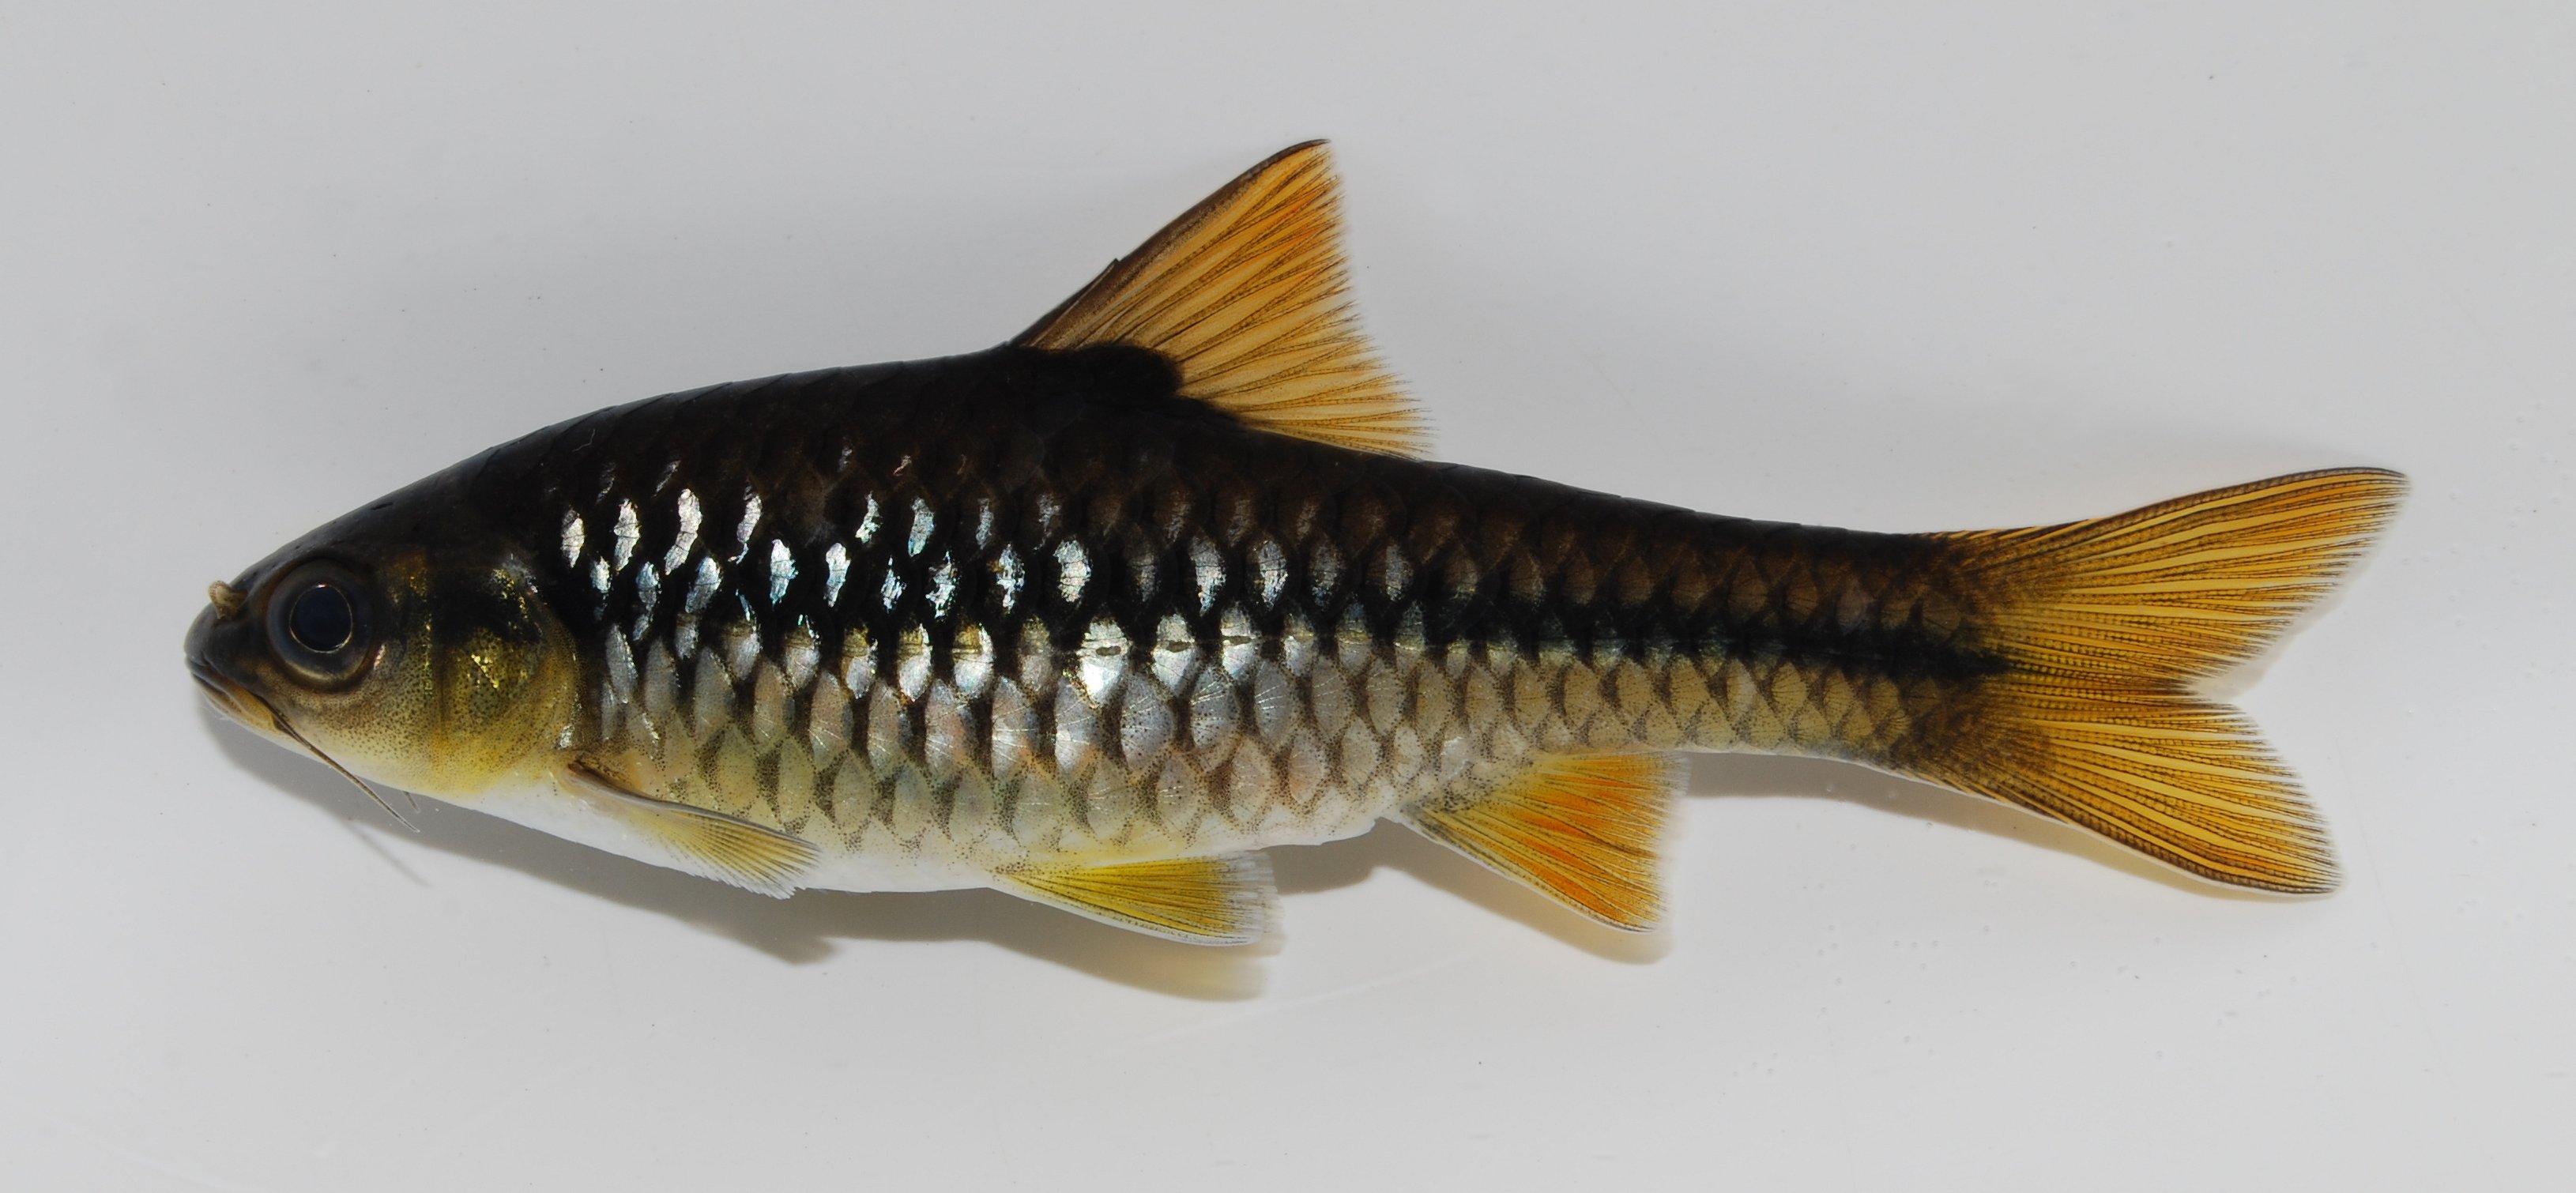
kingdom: Animalia
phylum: Chordata
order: Cypriniformes
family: Cyprinidae
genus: Enteromius
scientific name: Enteromius miolepis
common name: Zigzag barb
